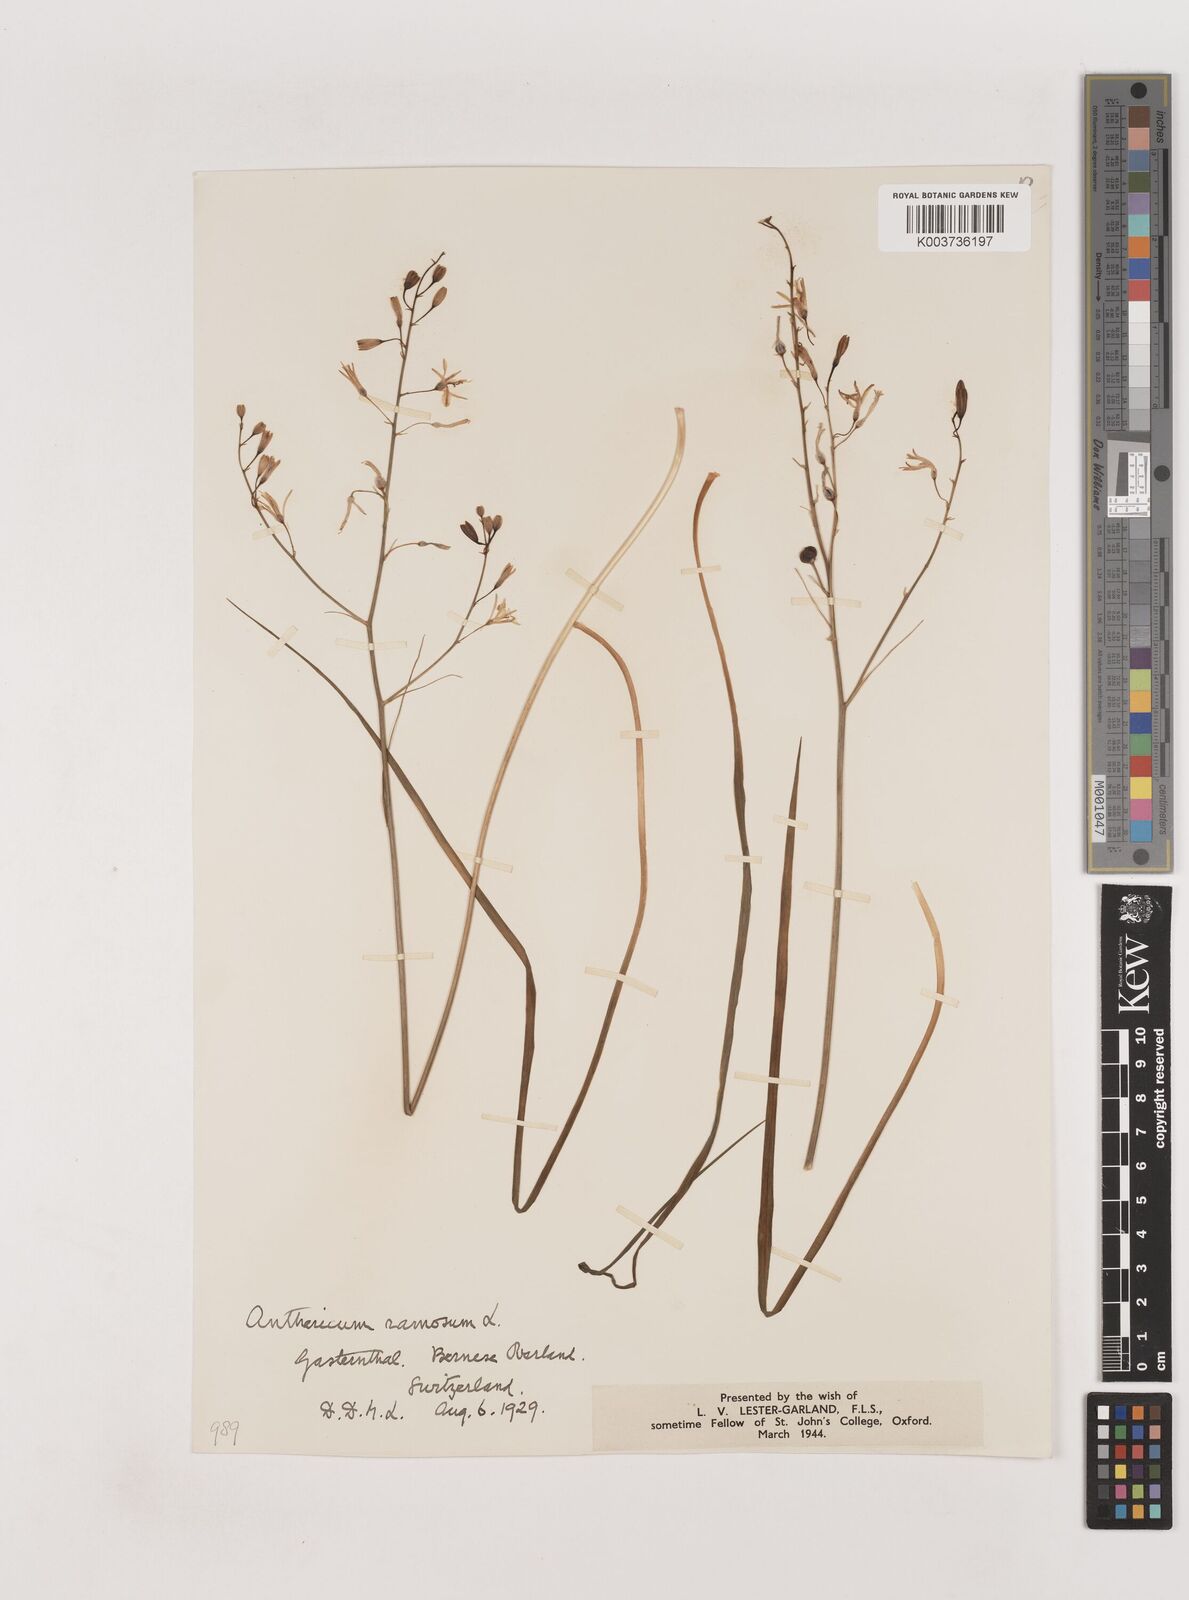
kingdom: Plantae
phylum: Tracheophyta
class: Liliopsida
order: Asparagales
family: Asparagaceae
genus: Anthericum
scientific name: Anthericum ramosum
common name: Branched st. bernard's-lily
